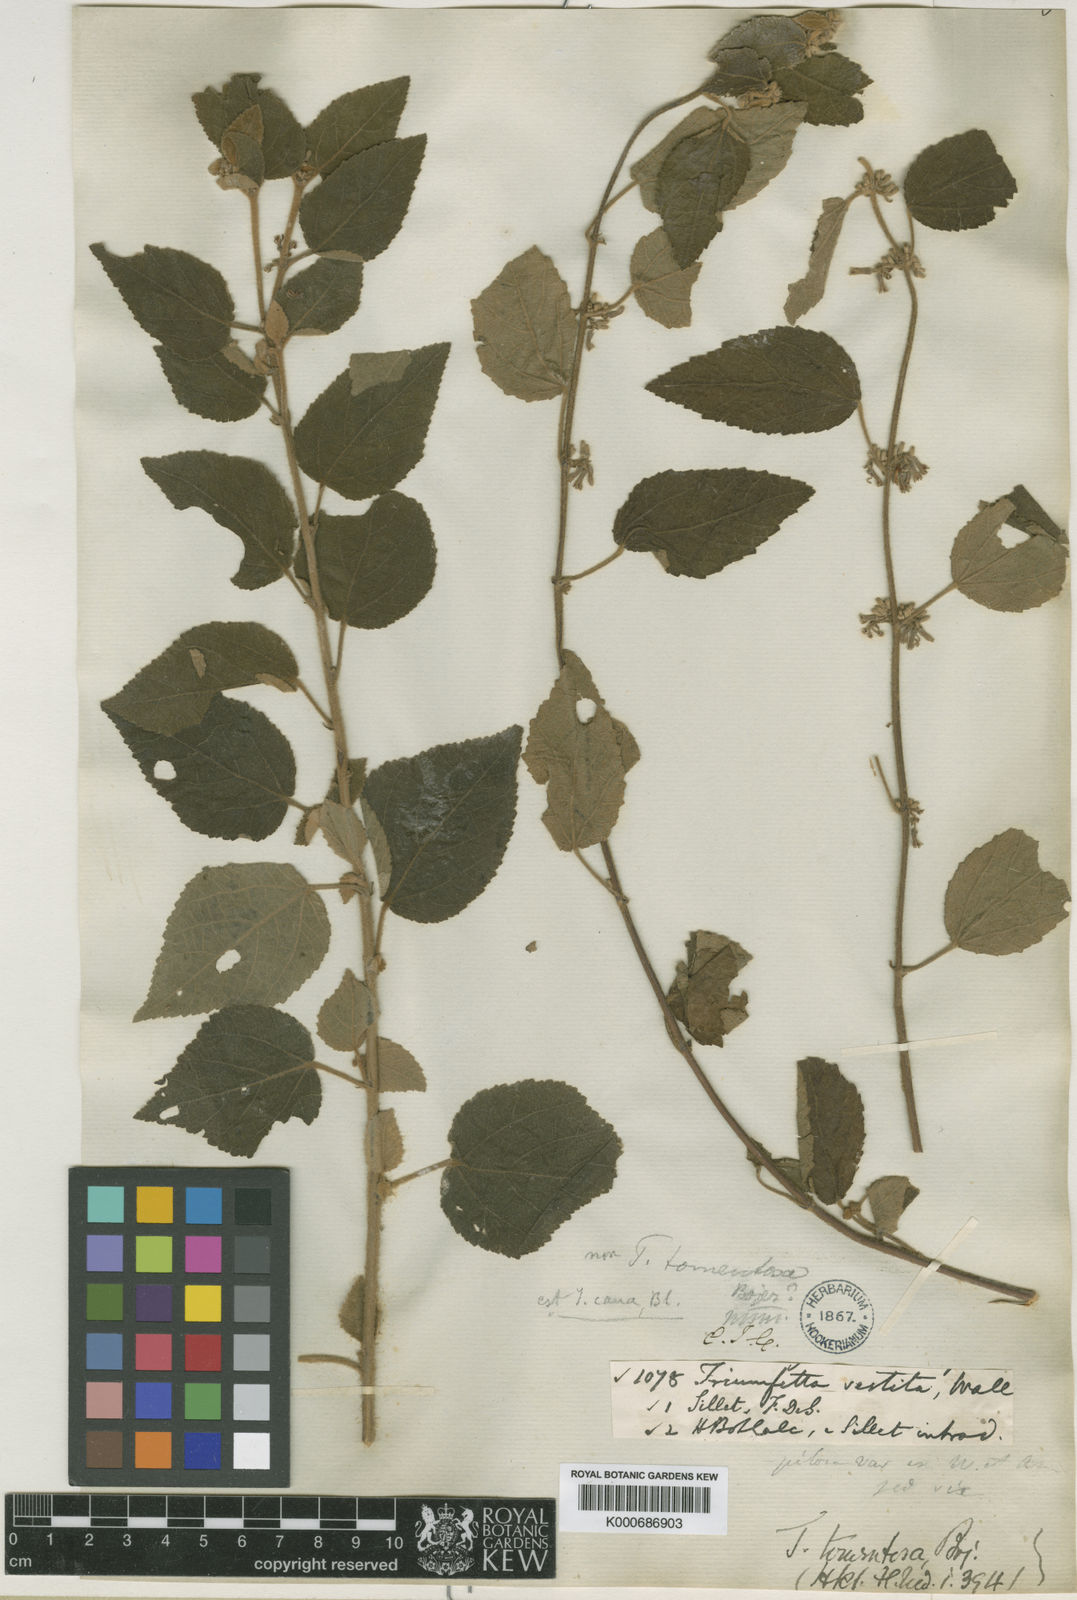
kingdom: Plantae
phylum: Tracheophyta
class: Magnoliopsida
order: Malvales
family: Malvaceae
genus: Triumfetta
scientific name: Triumfetta obliqua
